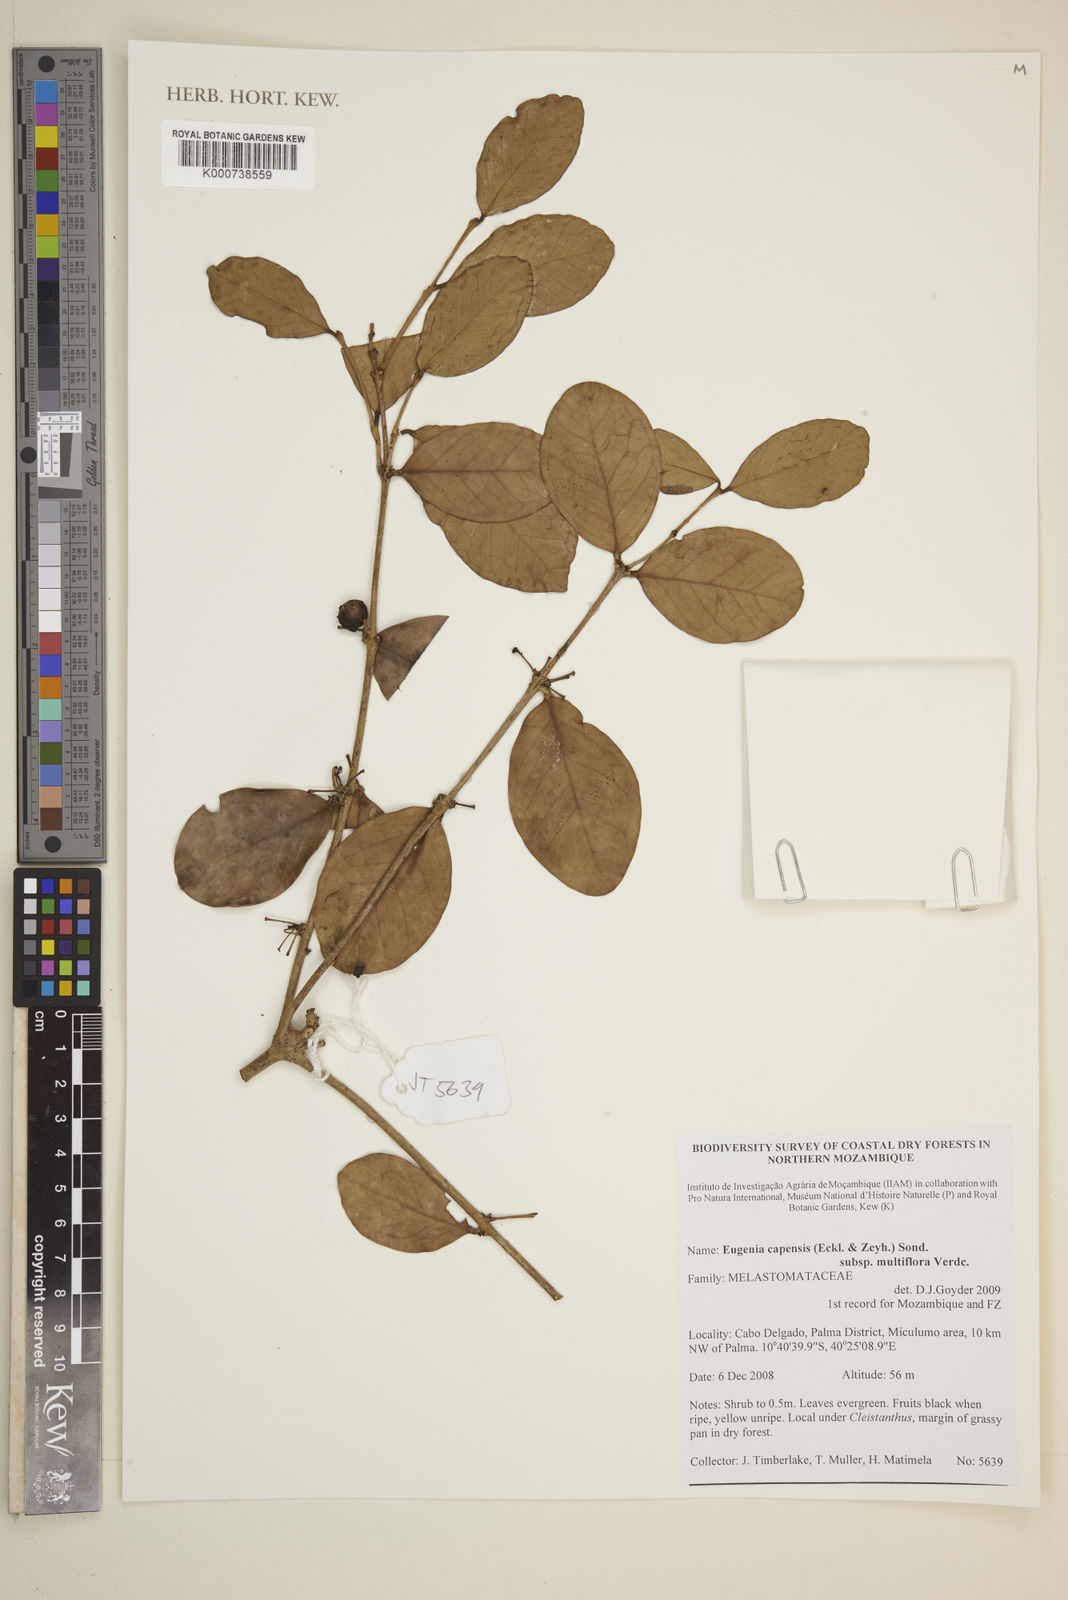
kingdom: Plantae
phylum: Tracheophyta
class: Magnoliopsida
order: Myrtales
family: Myrtaceae
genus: Eugenia
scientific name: Eugenia capensis
